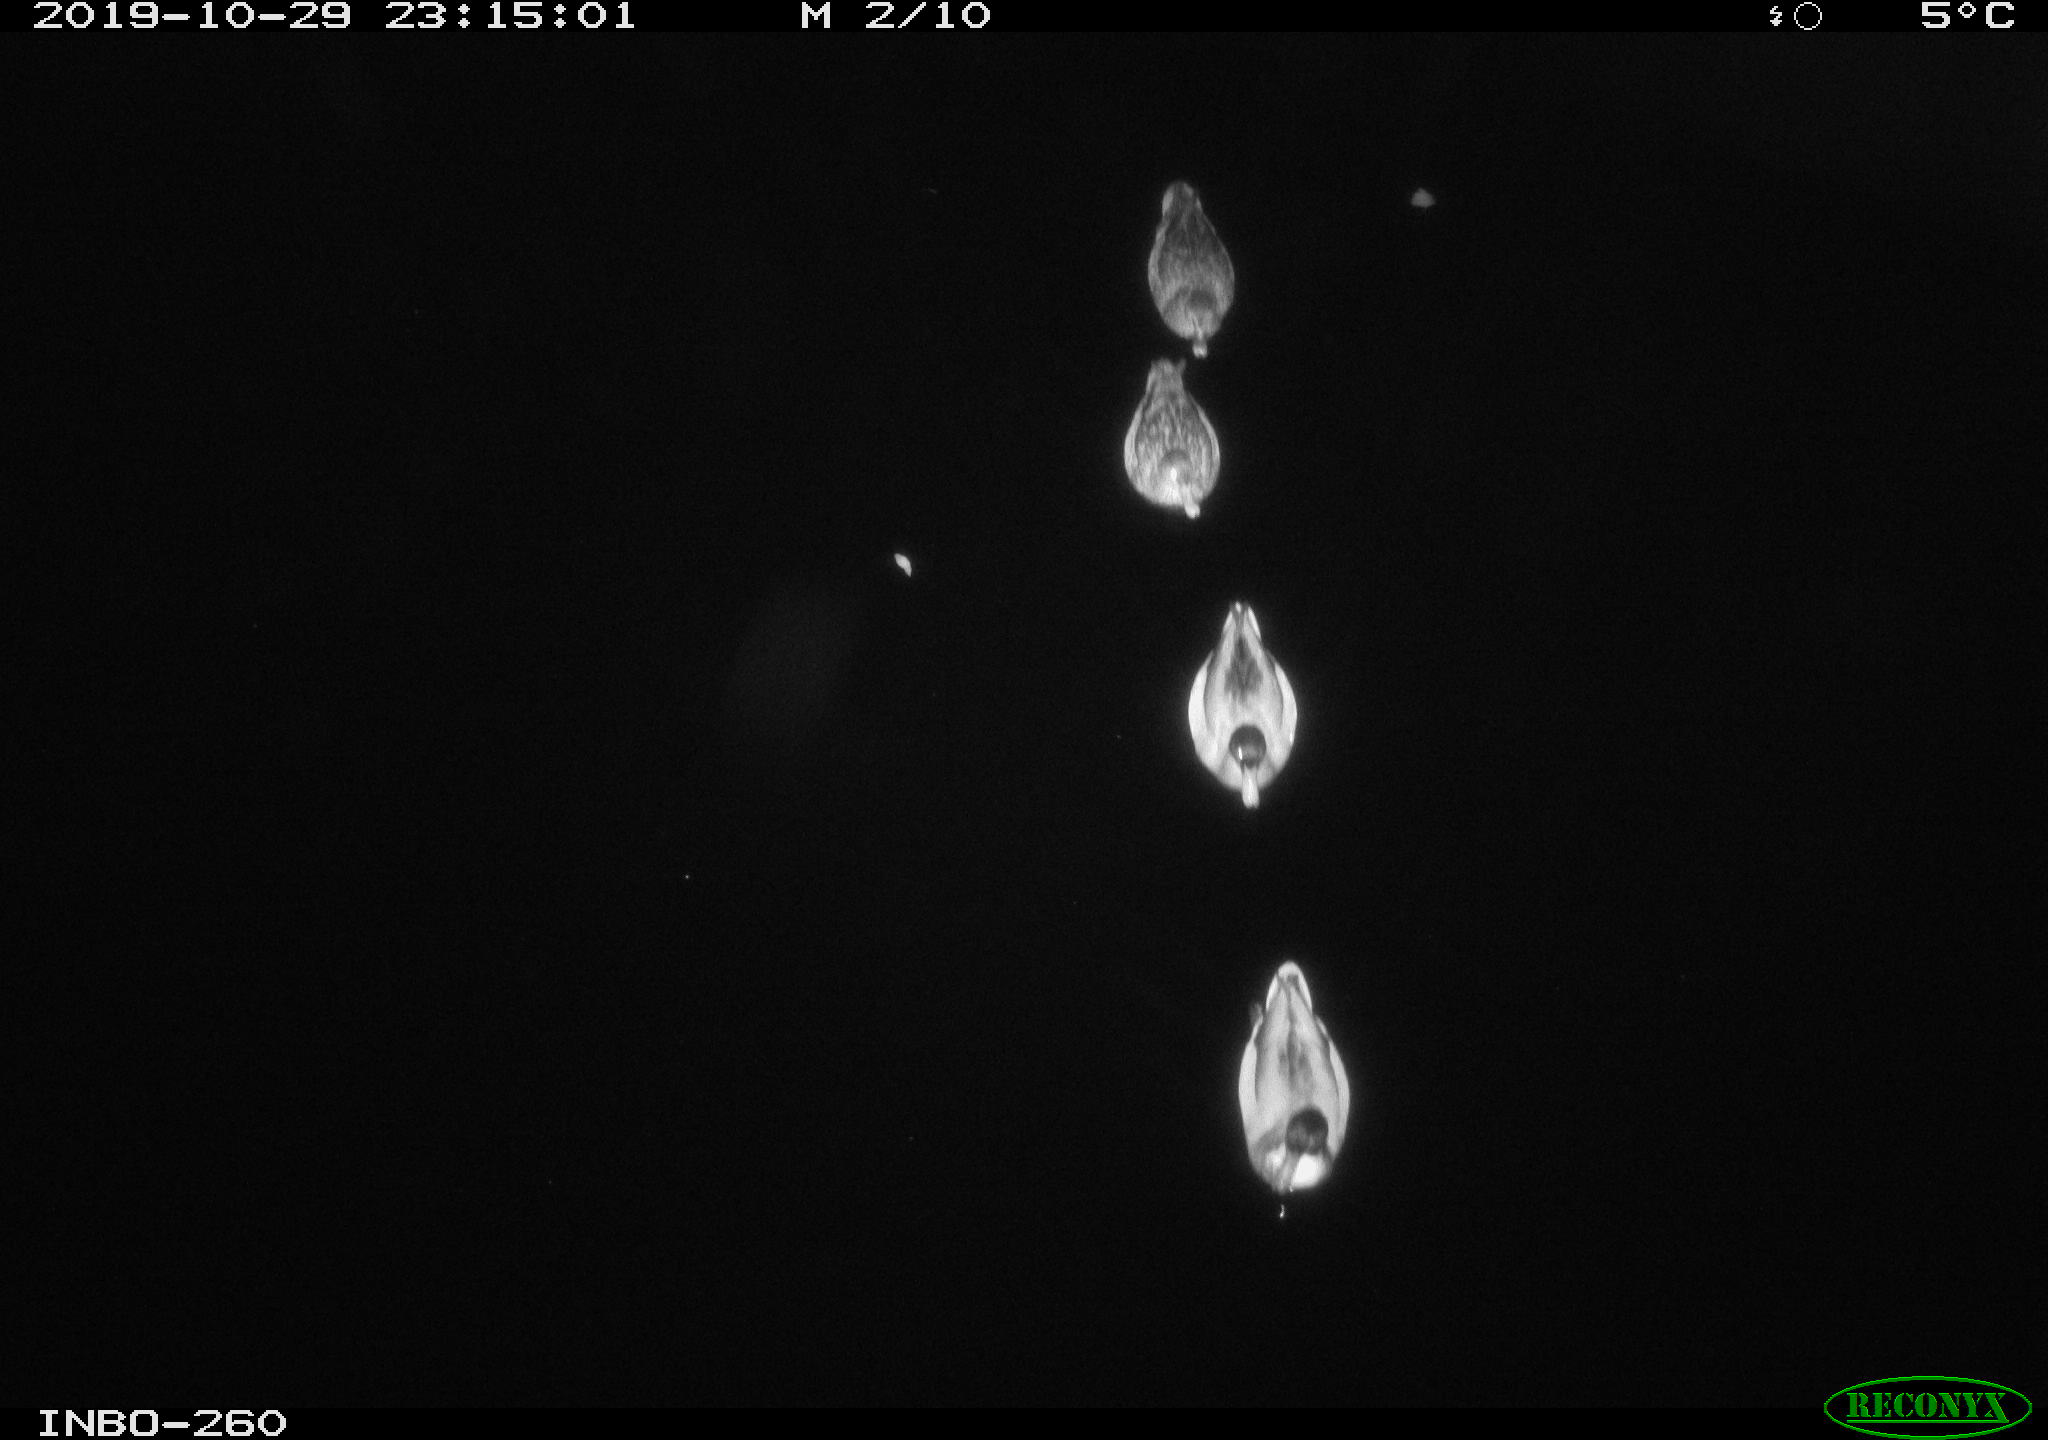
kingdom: Animalia
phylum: Chordata
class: Aves
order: Anseriformes
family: Anatidae
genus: Anas
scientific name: Anas platyrhynchos
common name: Mallard
